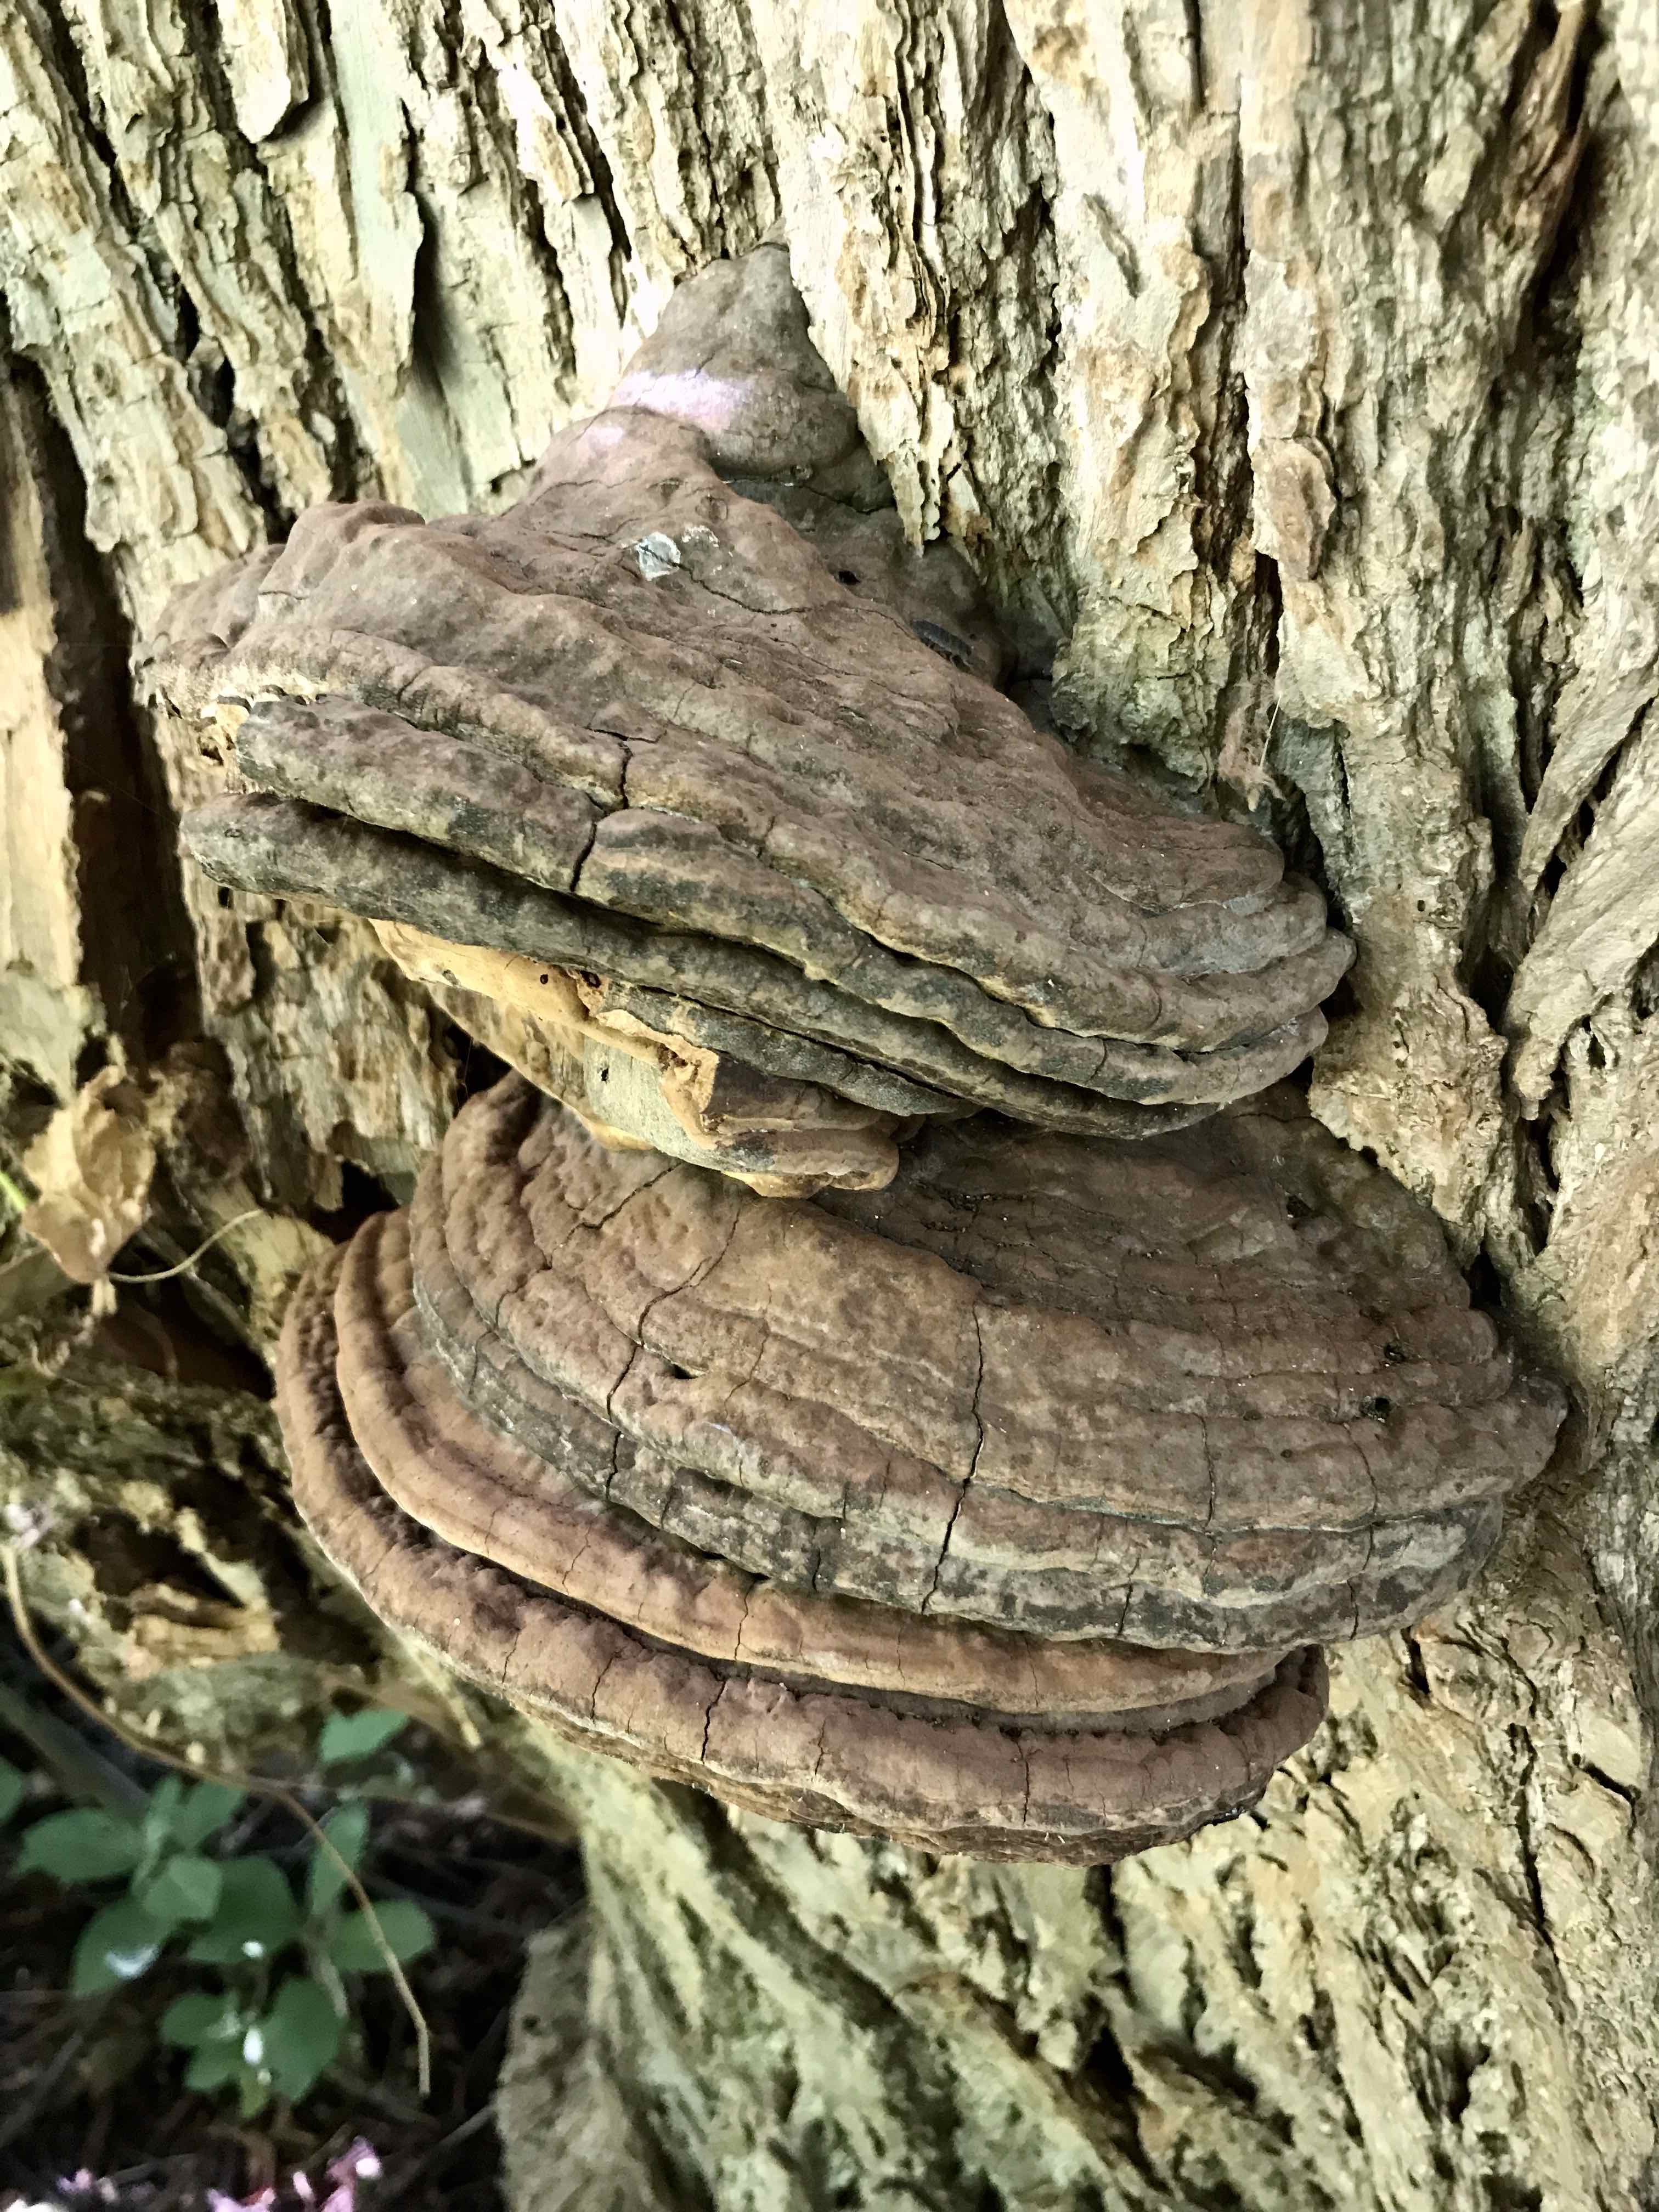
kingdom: Fungi
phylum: Basidiomycota
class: Agaricomycetes
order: Polyporales
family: Polyporaceae
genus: Ganoderma
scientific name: Ganoderma adspersum
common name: grov lakporesvamp
